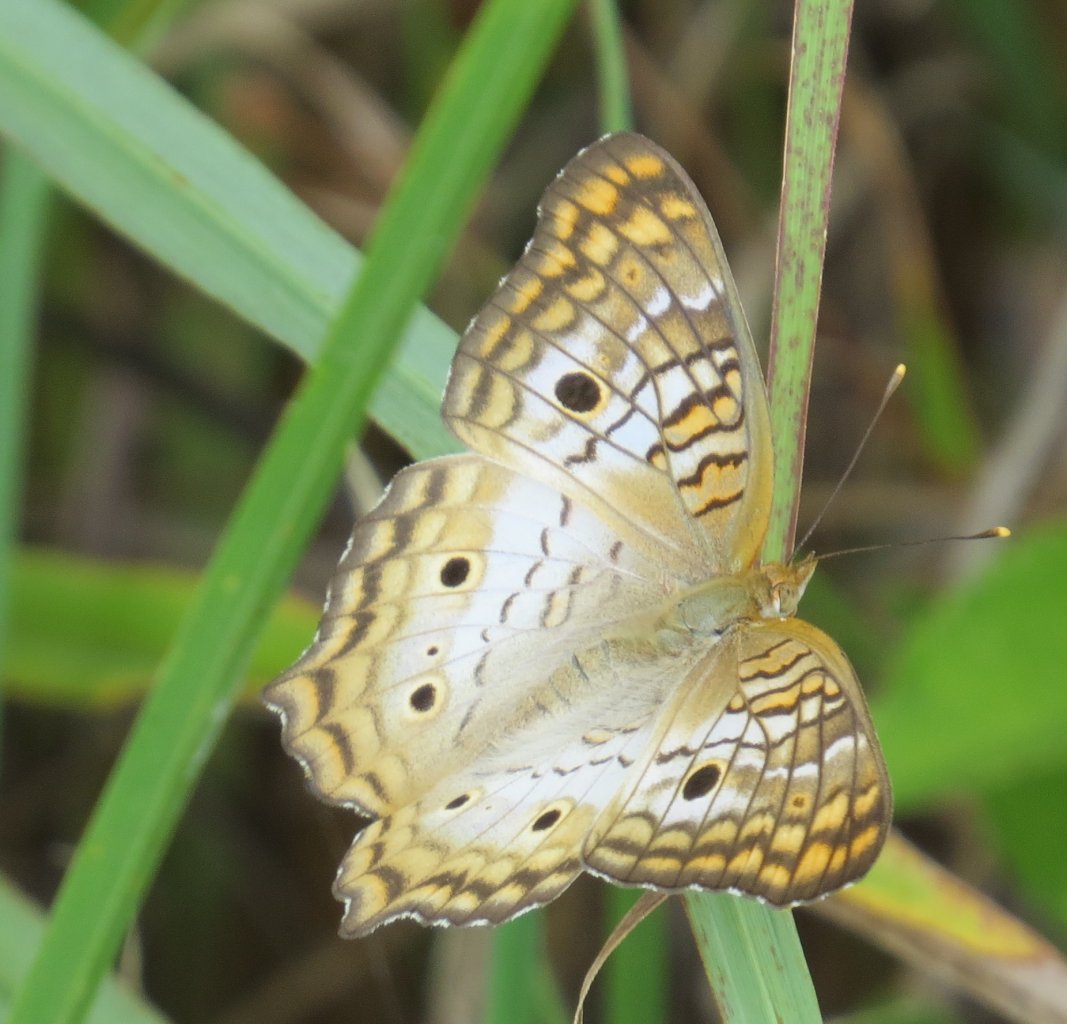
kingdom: Animalia
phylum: Arthropoda
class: Insecta
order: Lepidoptera
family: Nymphalidae
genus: Anartia
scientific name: Anartia jatrophae
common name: White Peacock
